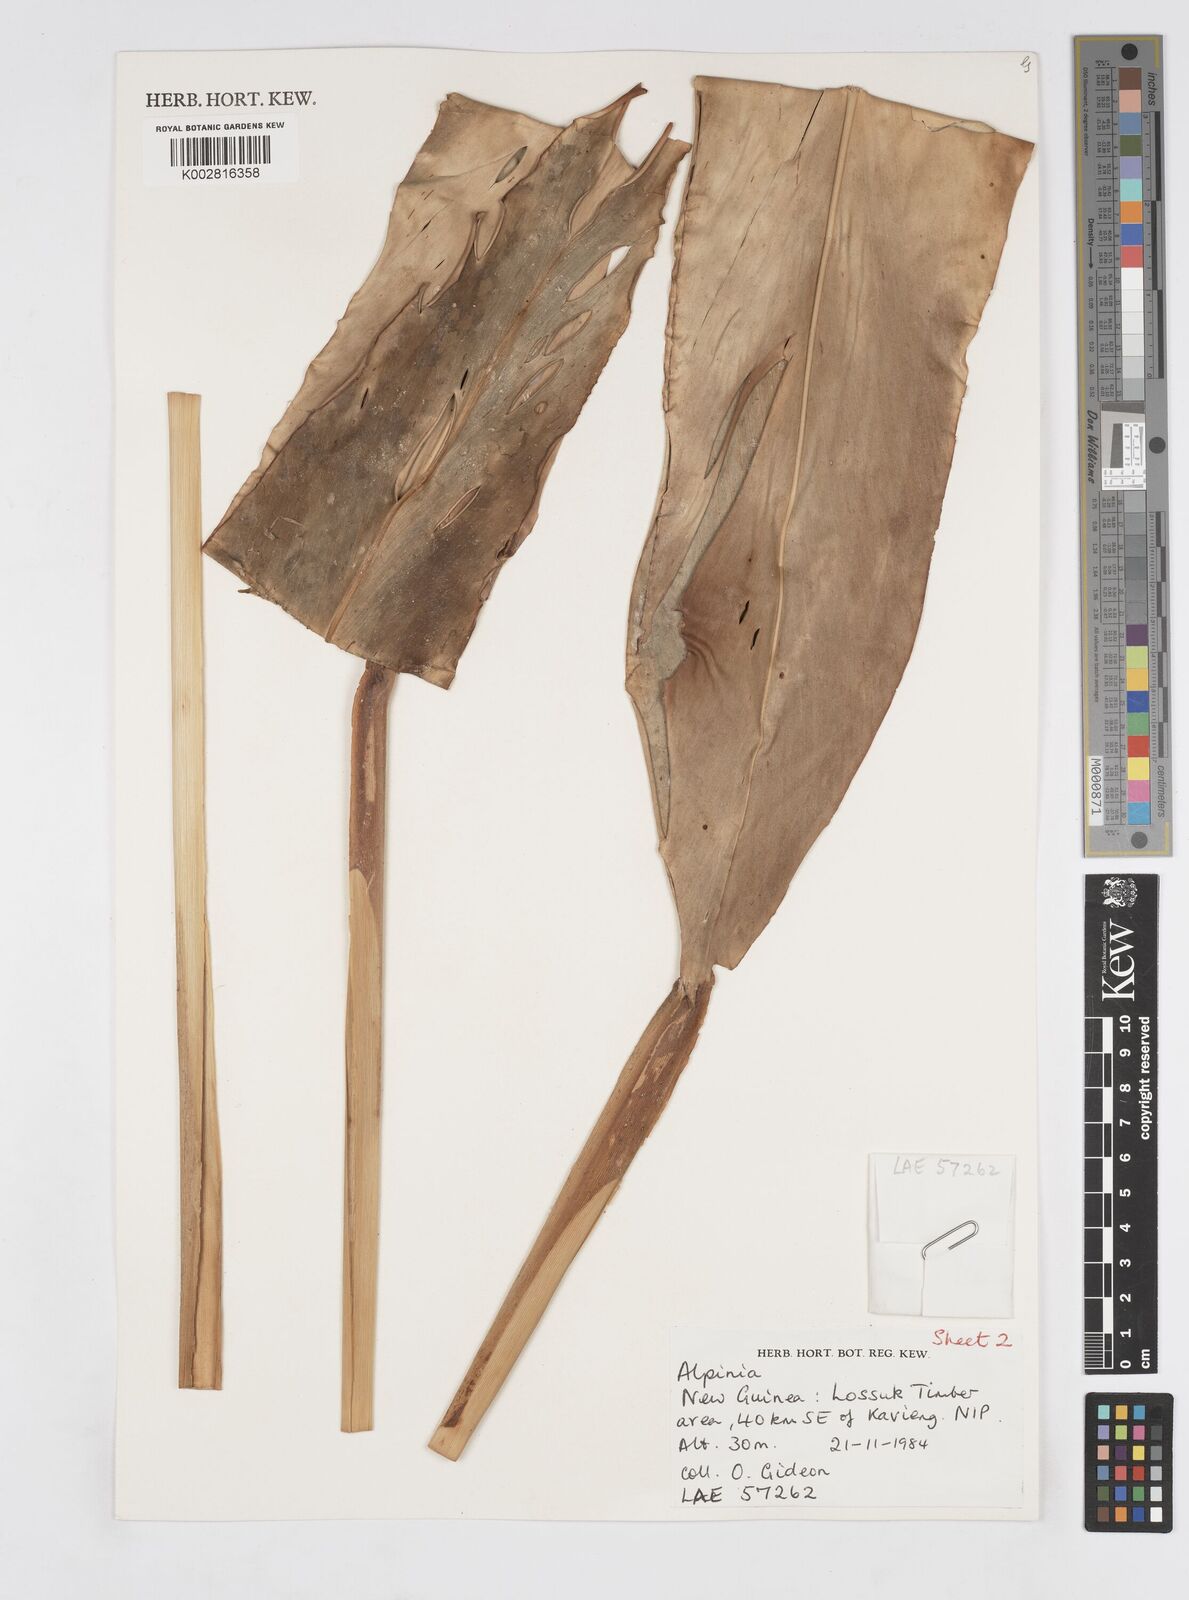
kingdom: Plantae
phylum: Tracheophyta
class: Liliopsida
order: Zingiberales
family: Zingiberaceae
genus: Alpinia
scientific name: Alpinia oceanica
